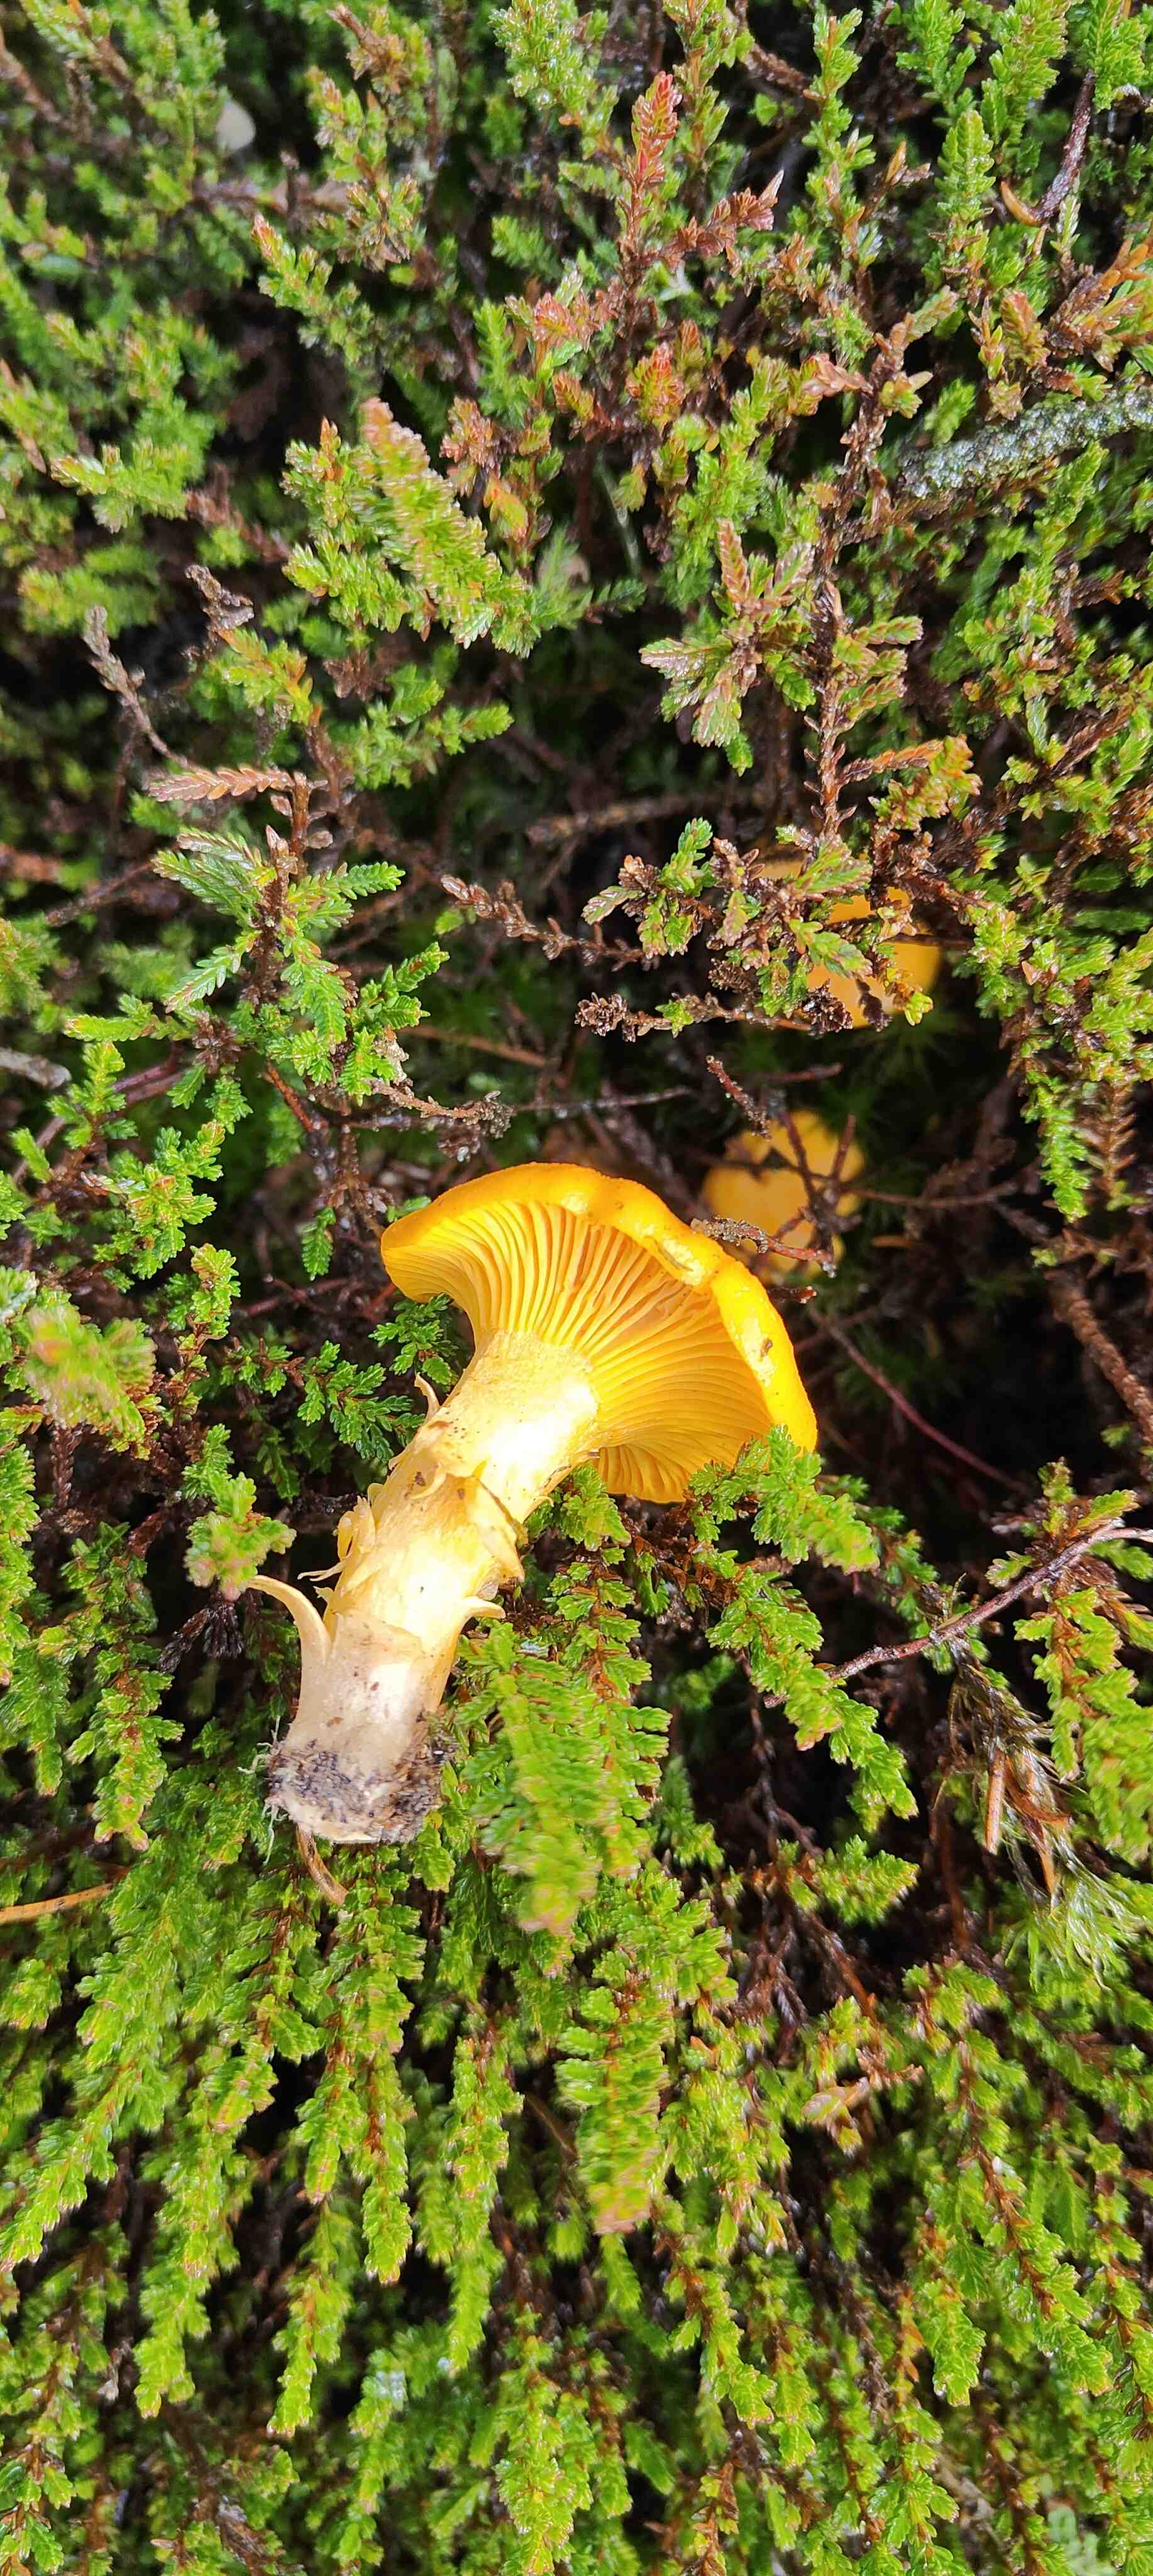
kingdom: Fungi
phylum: Basidiomycota
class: Agaricomycetes
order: Cantharellales
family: Hydnaceae
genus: Cantharellus
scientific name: Cantharellus cibarius
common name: almindelig kantarel
